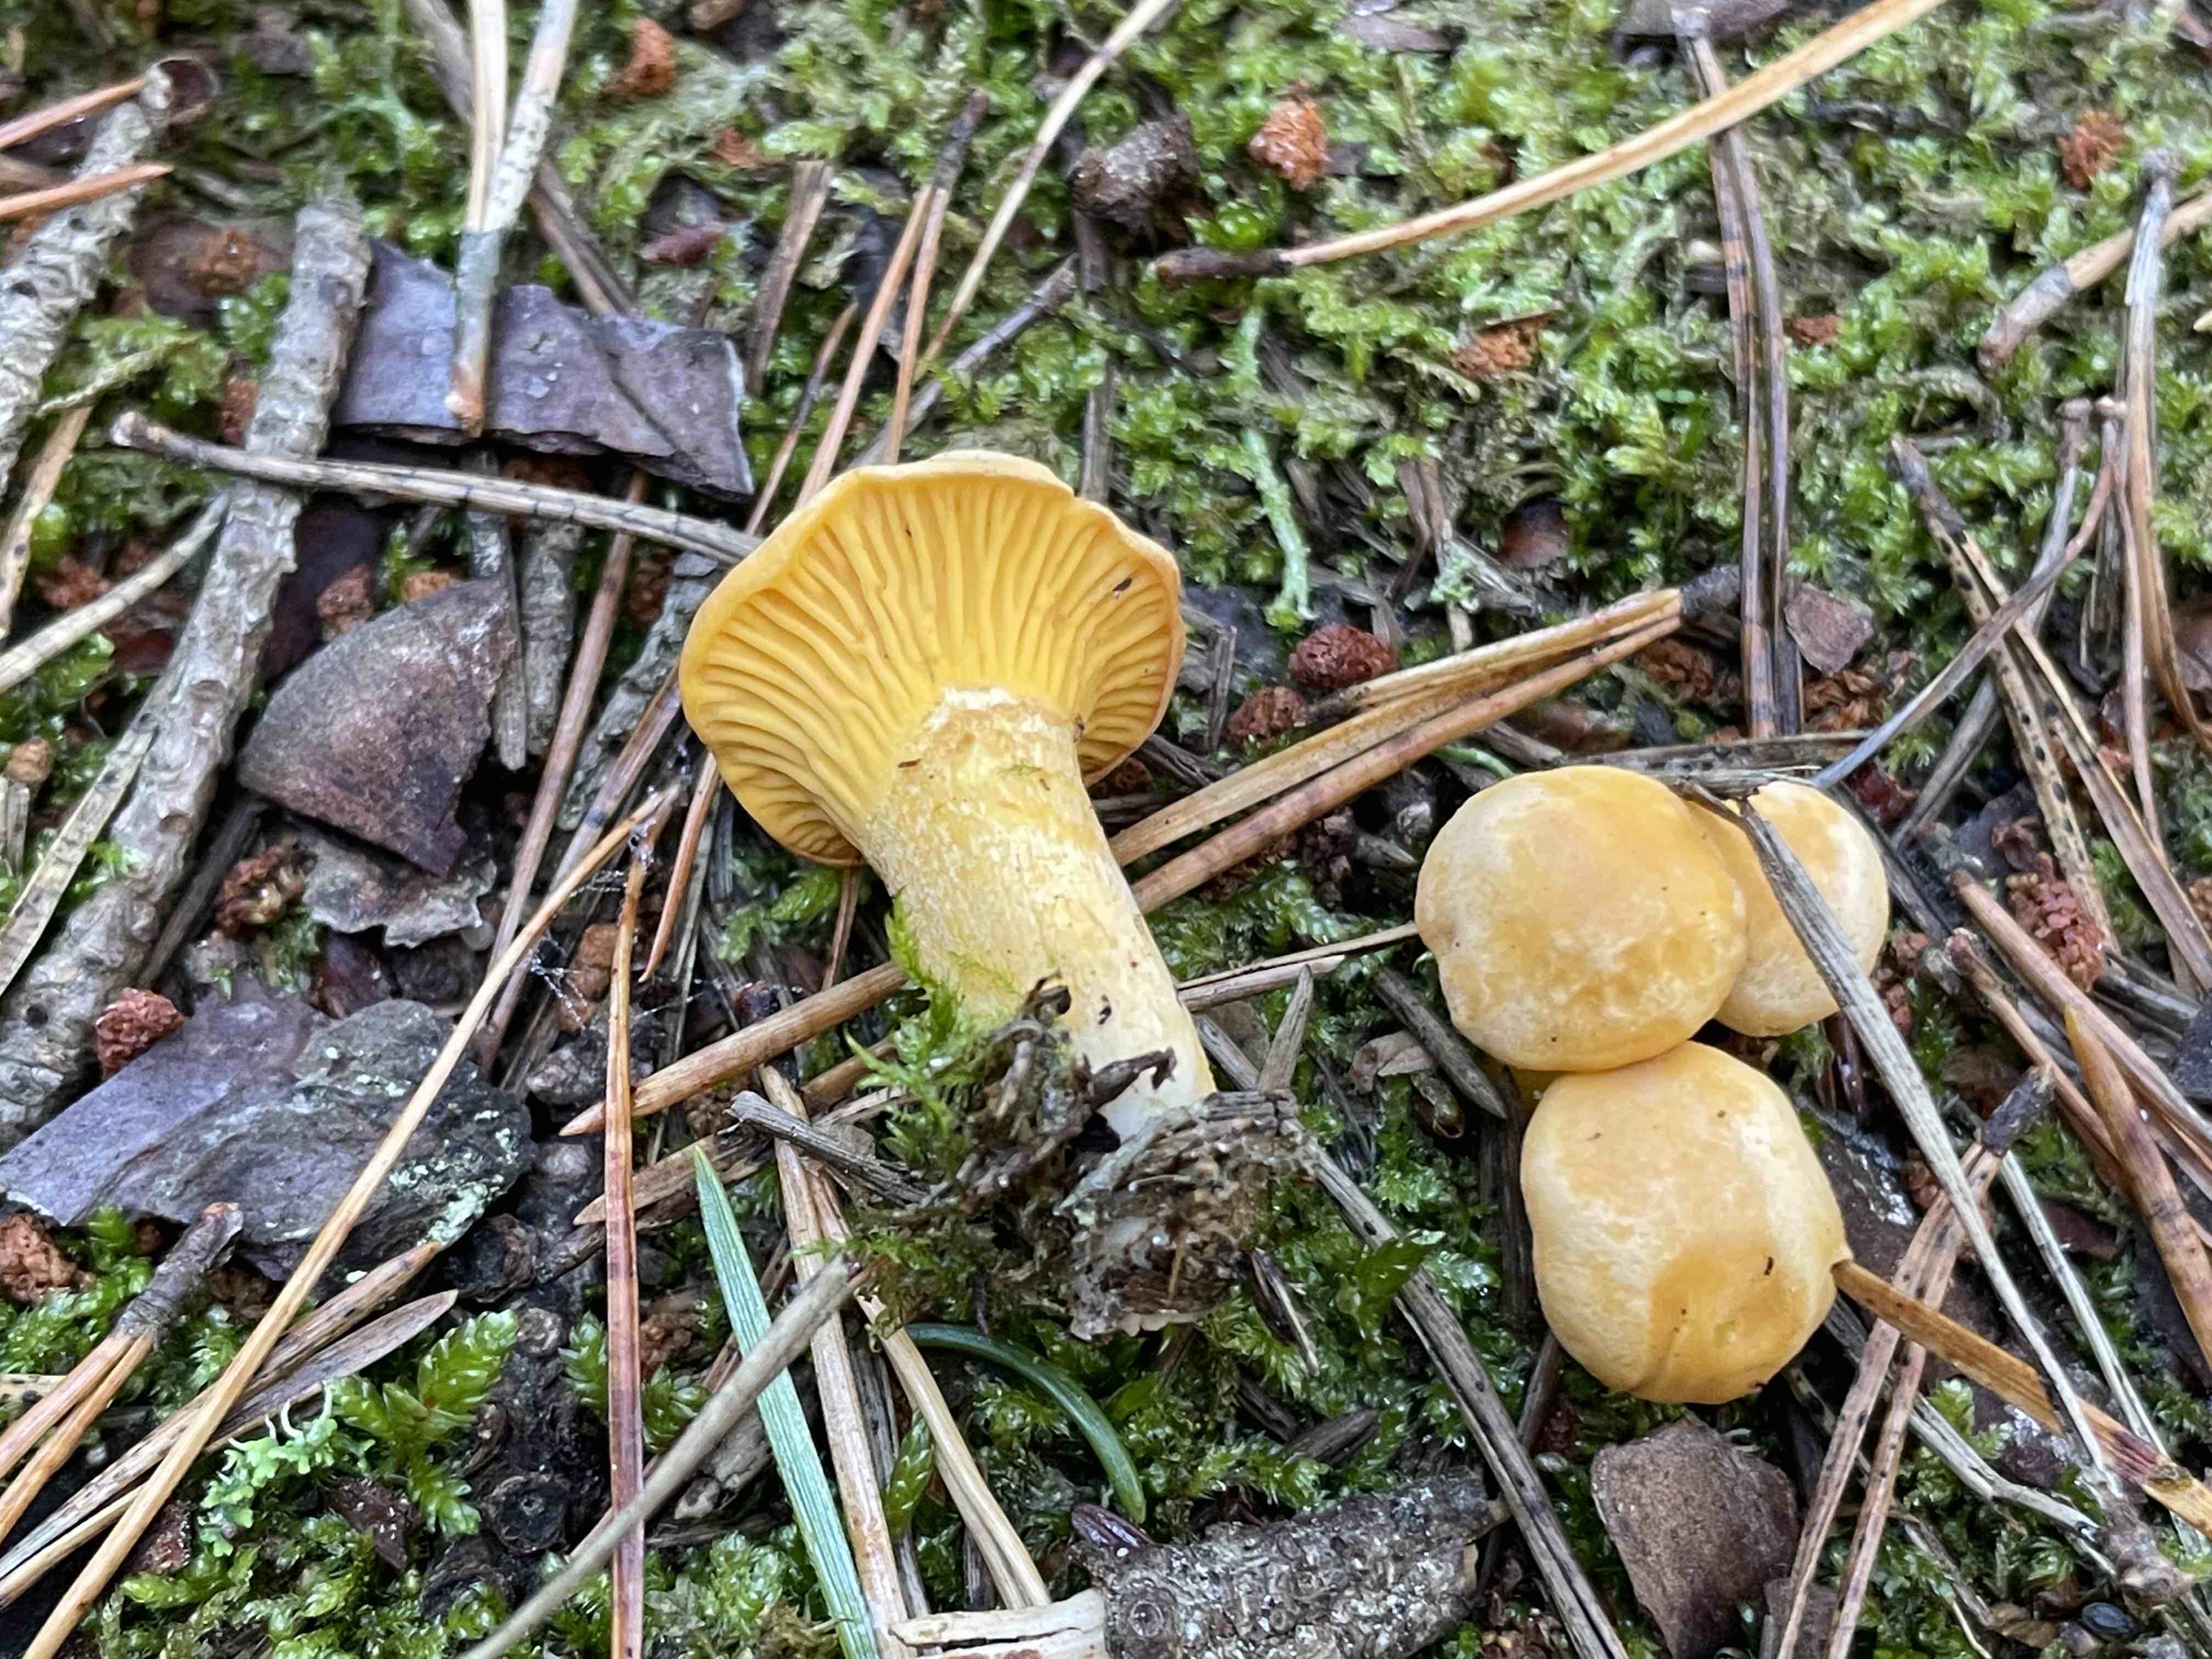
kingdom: Fungi
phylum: Basidiomycota
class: Agaricomycetes
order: Cantharellales
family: Hydnaceae
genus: Cantharellus
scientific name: Cantharellus cibarius
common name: almindelig kantarel
